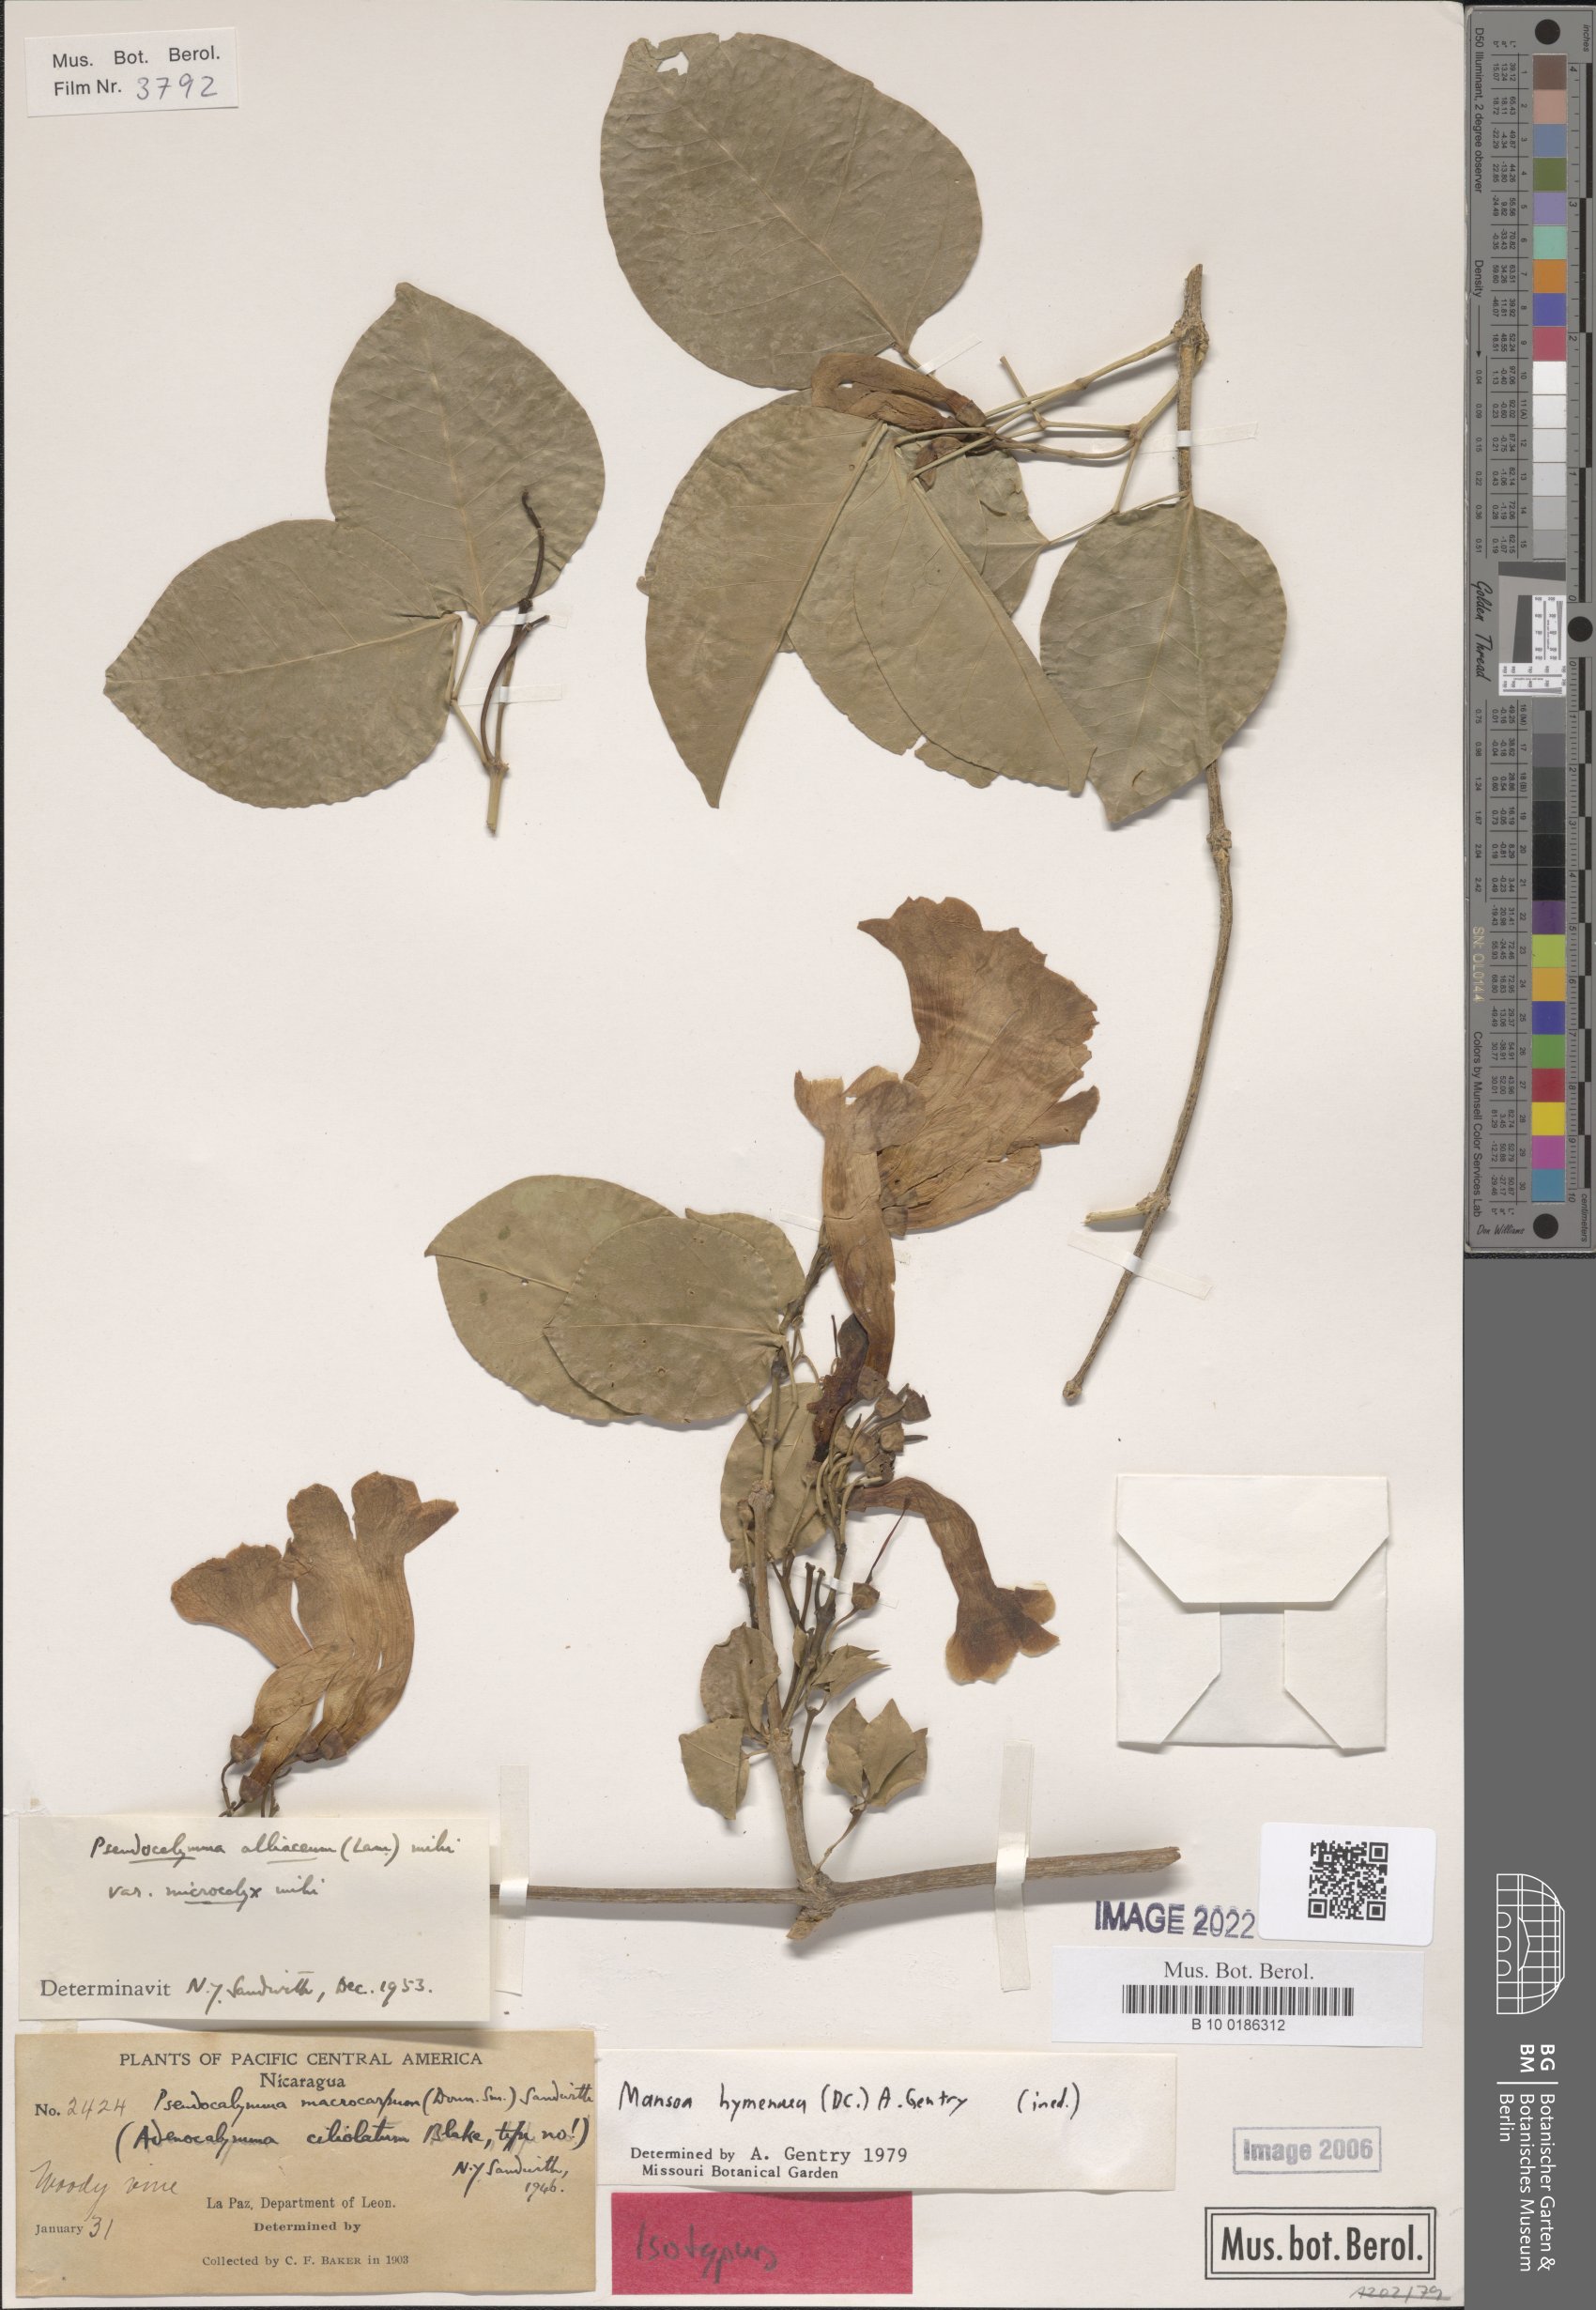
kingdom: Plantae
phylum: Tracheophyta
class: Magnoliopsida
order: Lamiales
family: Bignoniaceae
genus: Mansoa
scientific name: Mansoa hymenaea
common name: Membranous garlic vine
